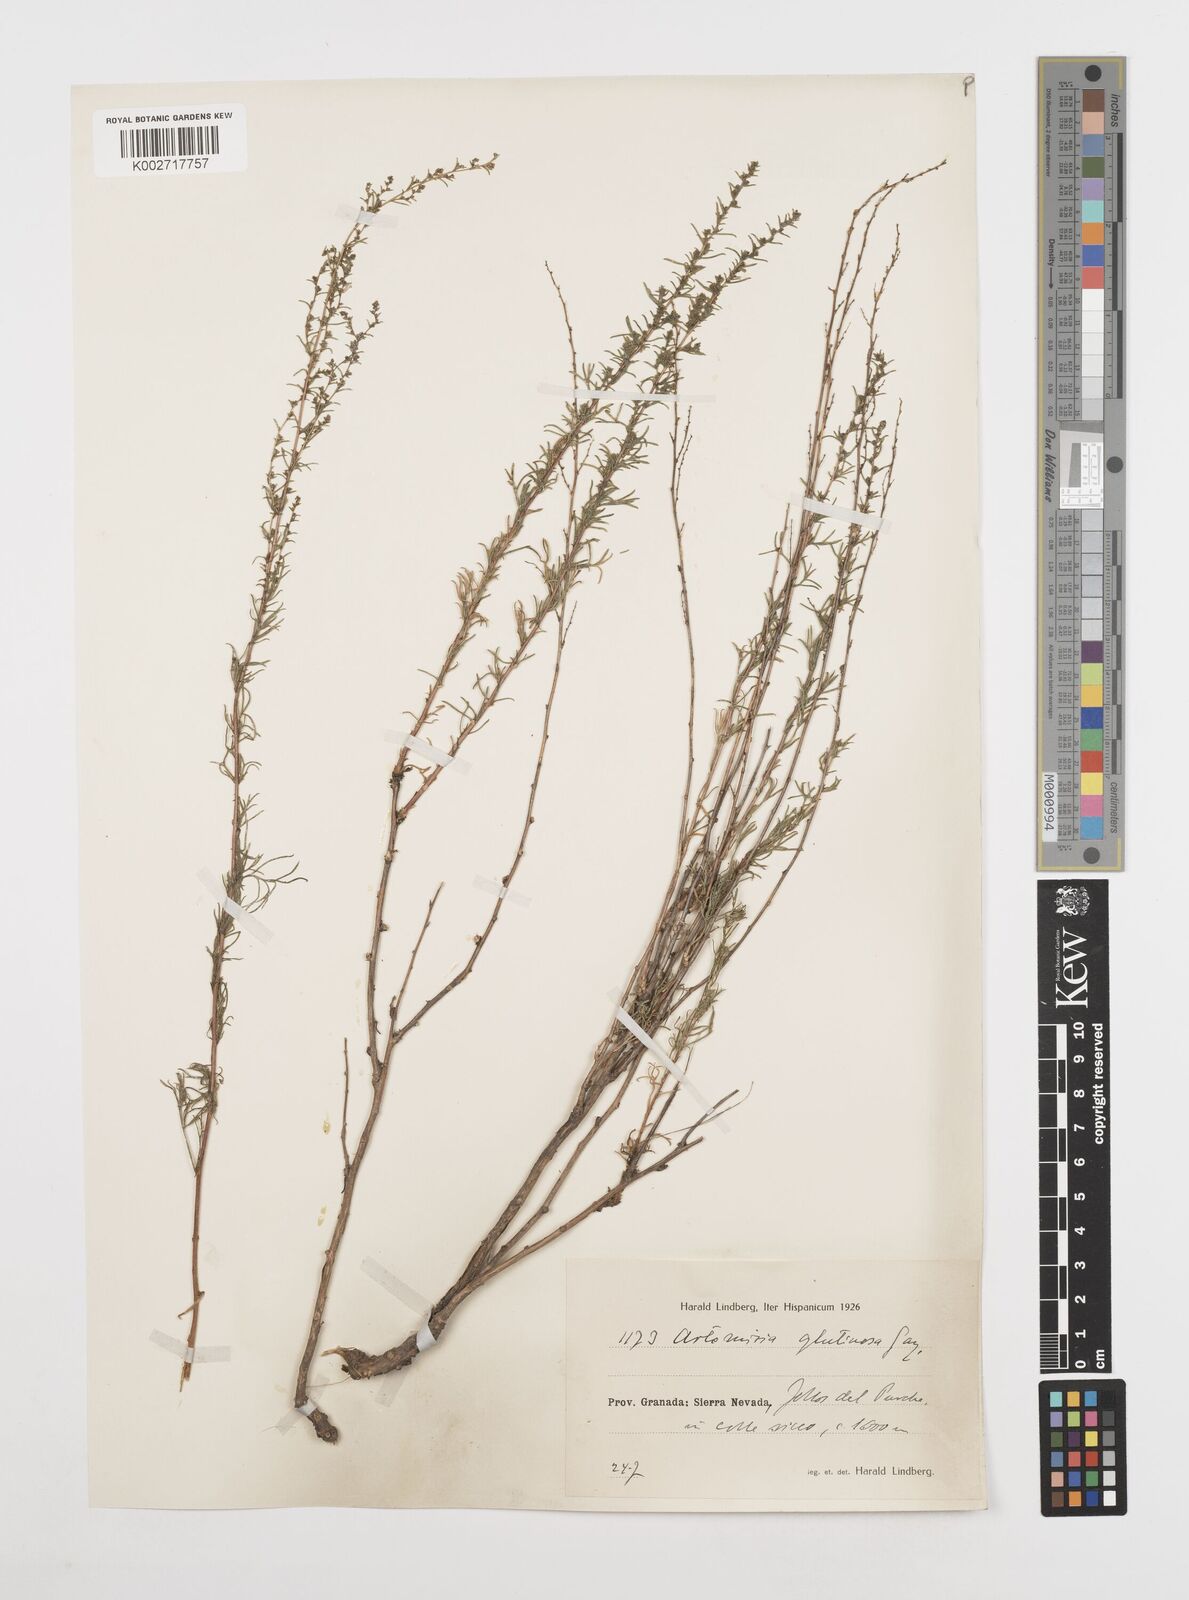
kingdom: Plantae
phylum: Tracheophyta
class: Magnoliopsida
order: Asterales
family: Asteraceae
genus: Artemisia
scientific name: Artemisia campestris
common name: Field wormwood
